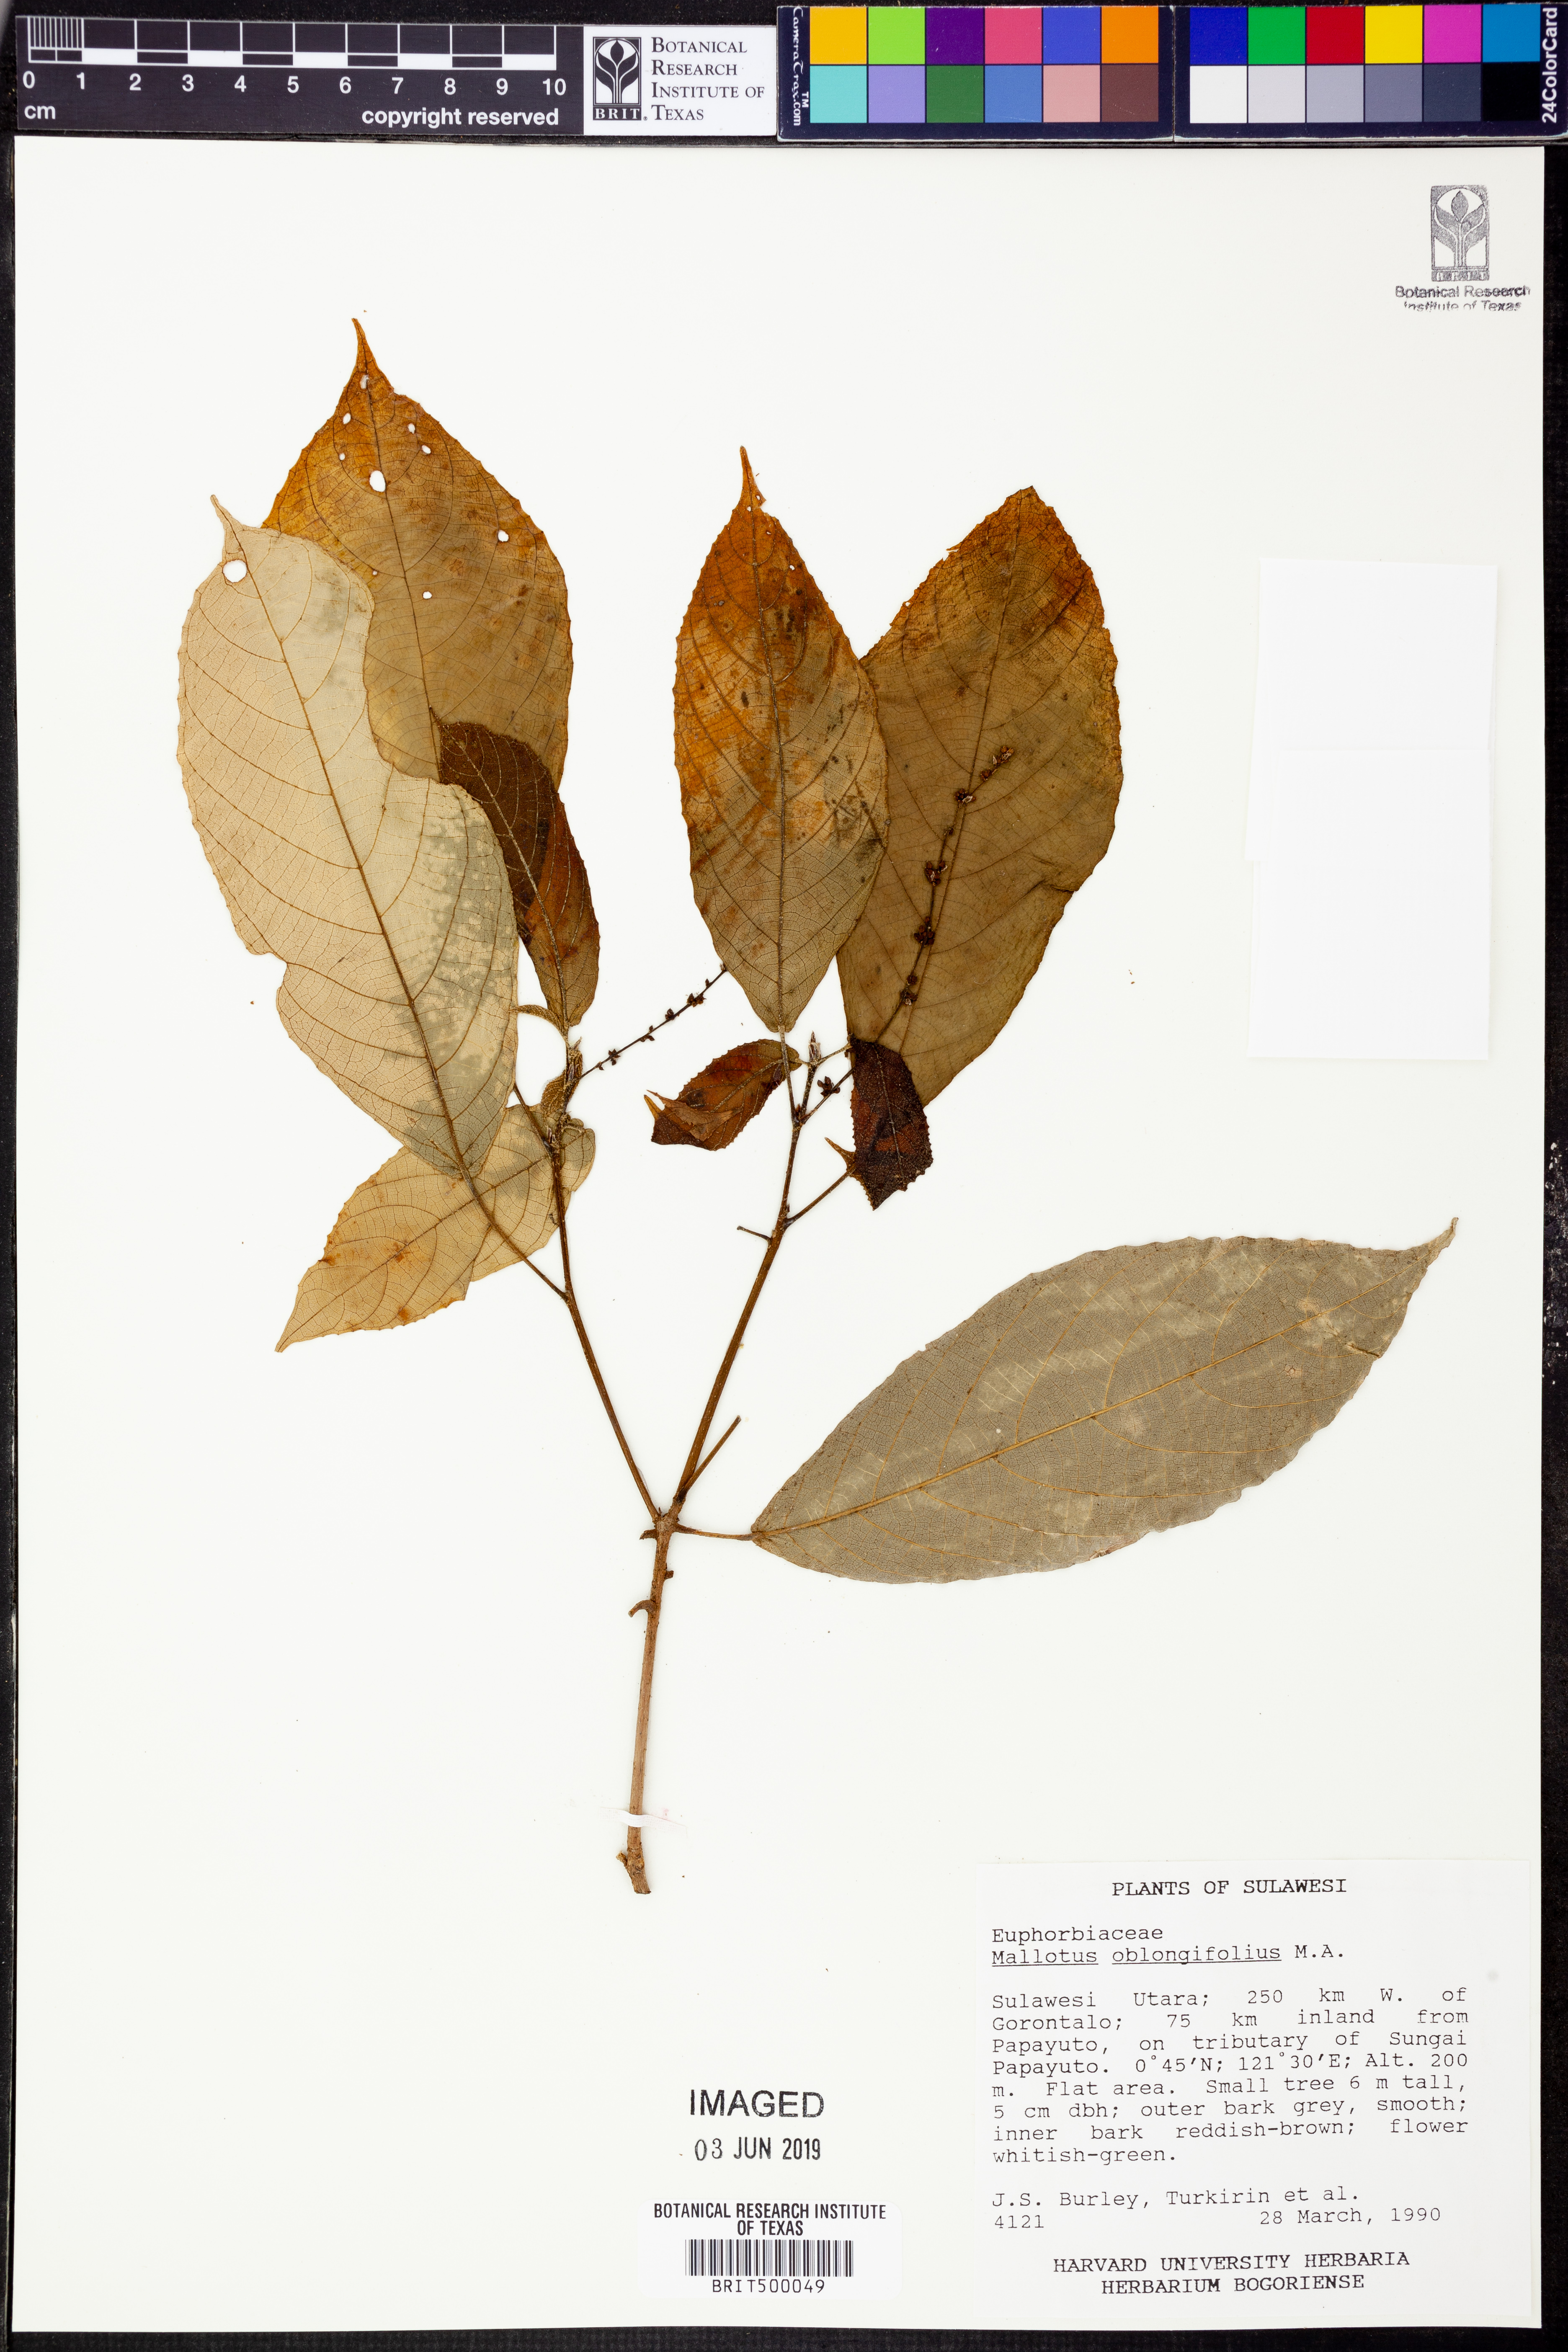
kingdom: Plantae
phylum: Tracheophyta
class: Magnoliopsida
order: Malpighiales
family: Euphorbiaceae
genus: Mallotus
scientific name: Mallotus peltatus
